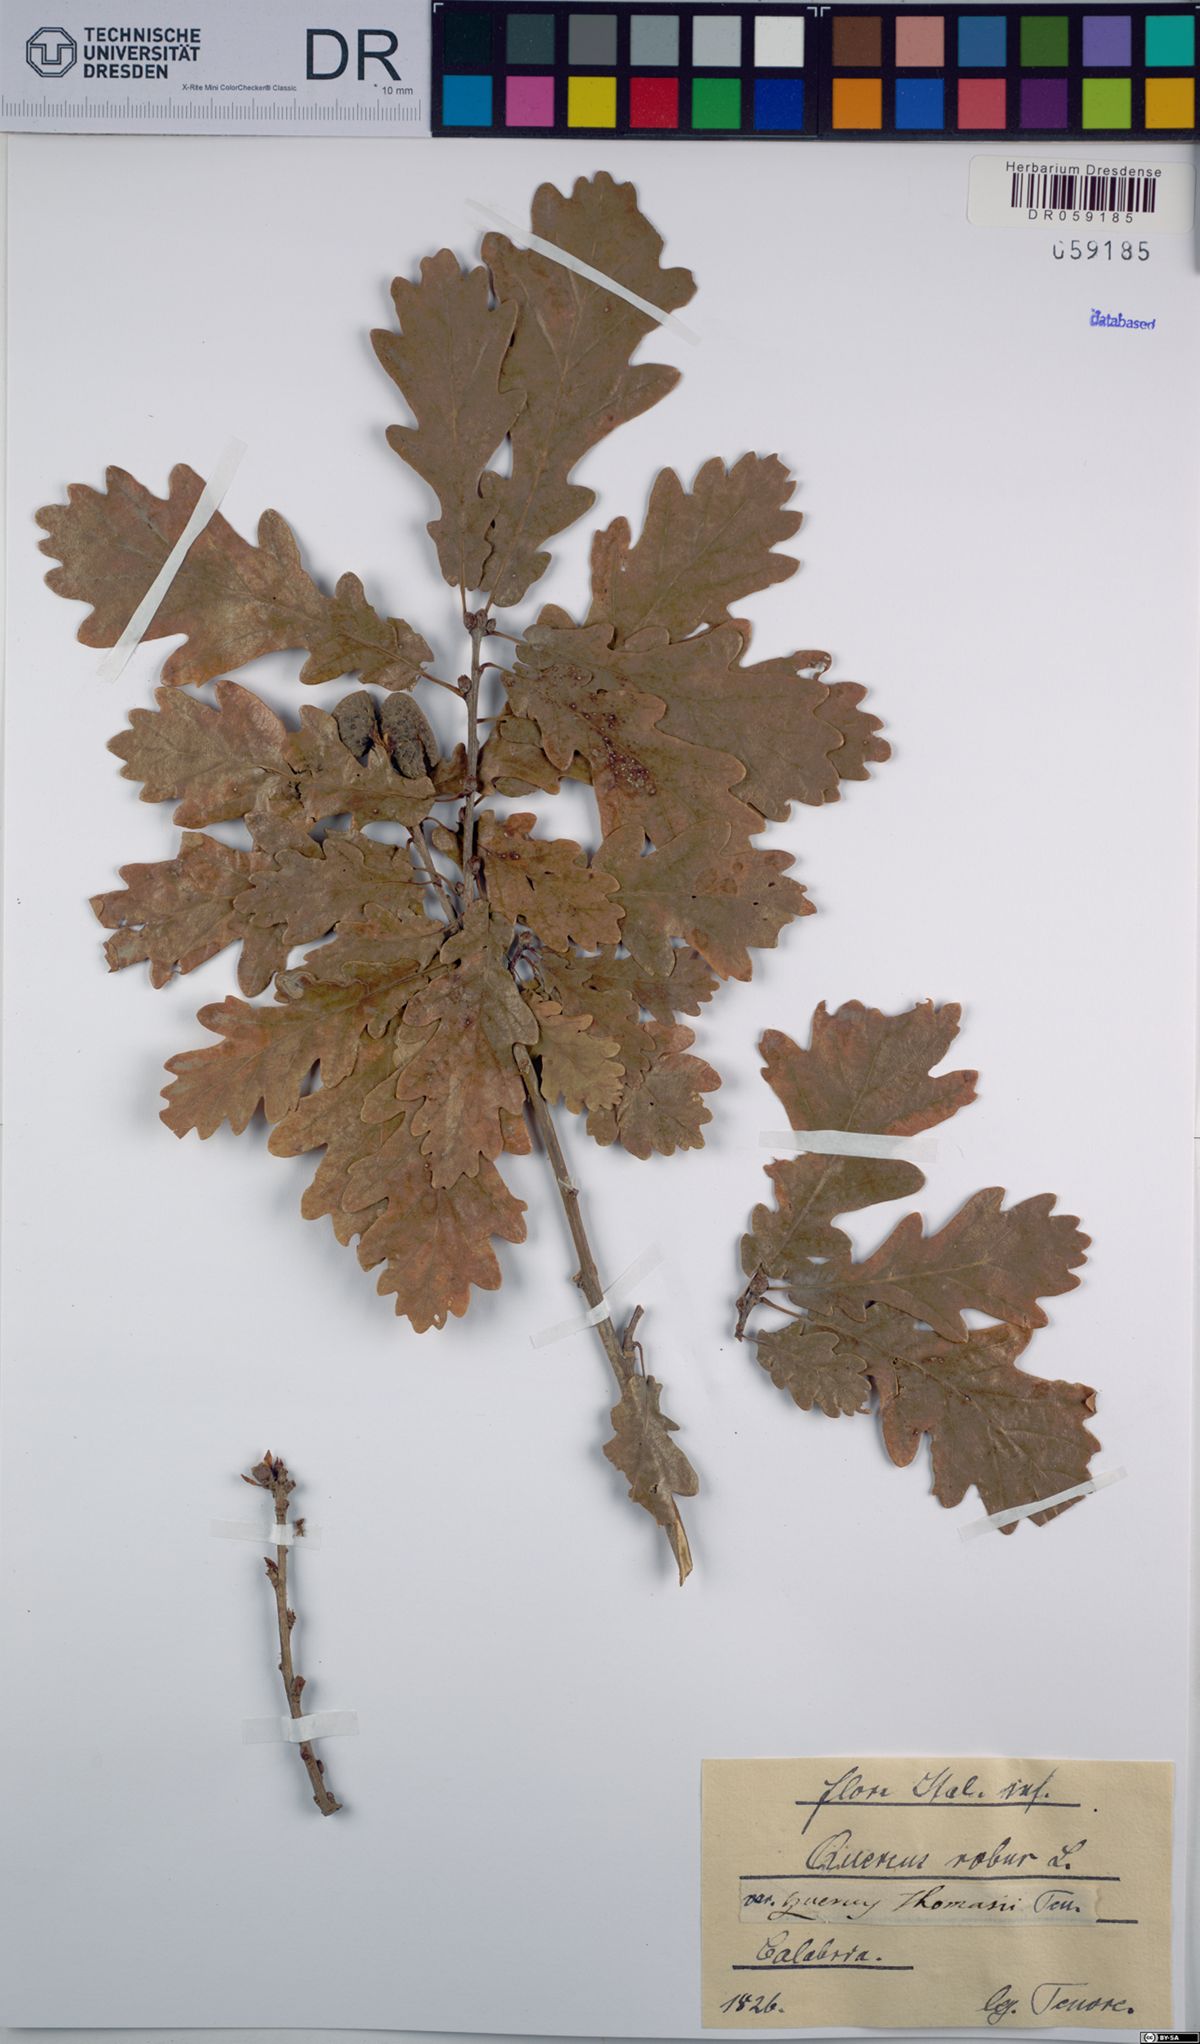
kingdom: Plantae
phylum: Tracheophyta
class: Magnoliopsida
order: Fagales
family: Fagaceae
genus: Quercus
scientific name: Quercus robur
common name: Pedunculate oak
